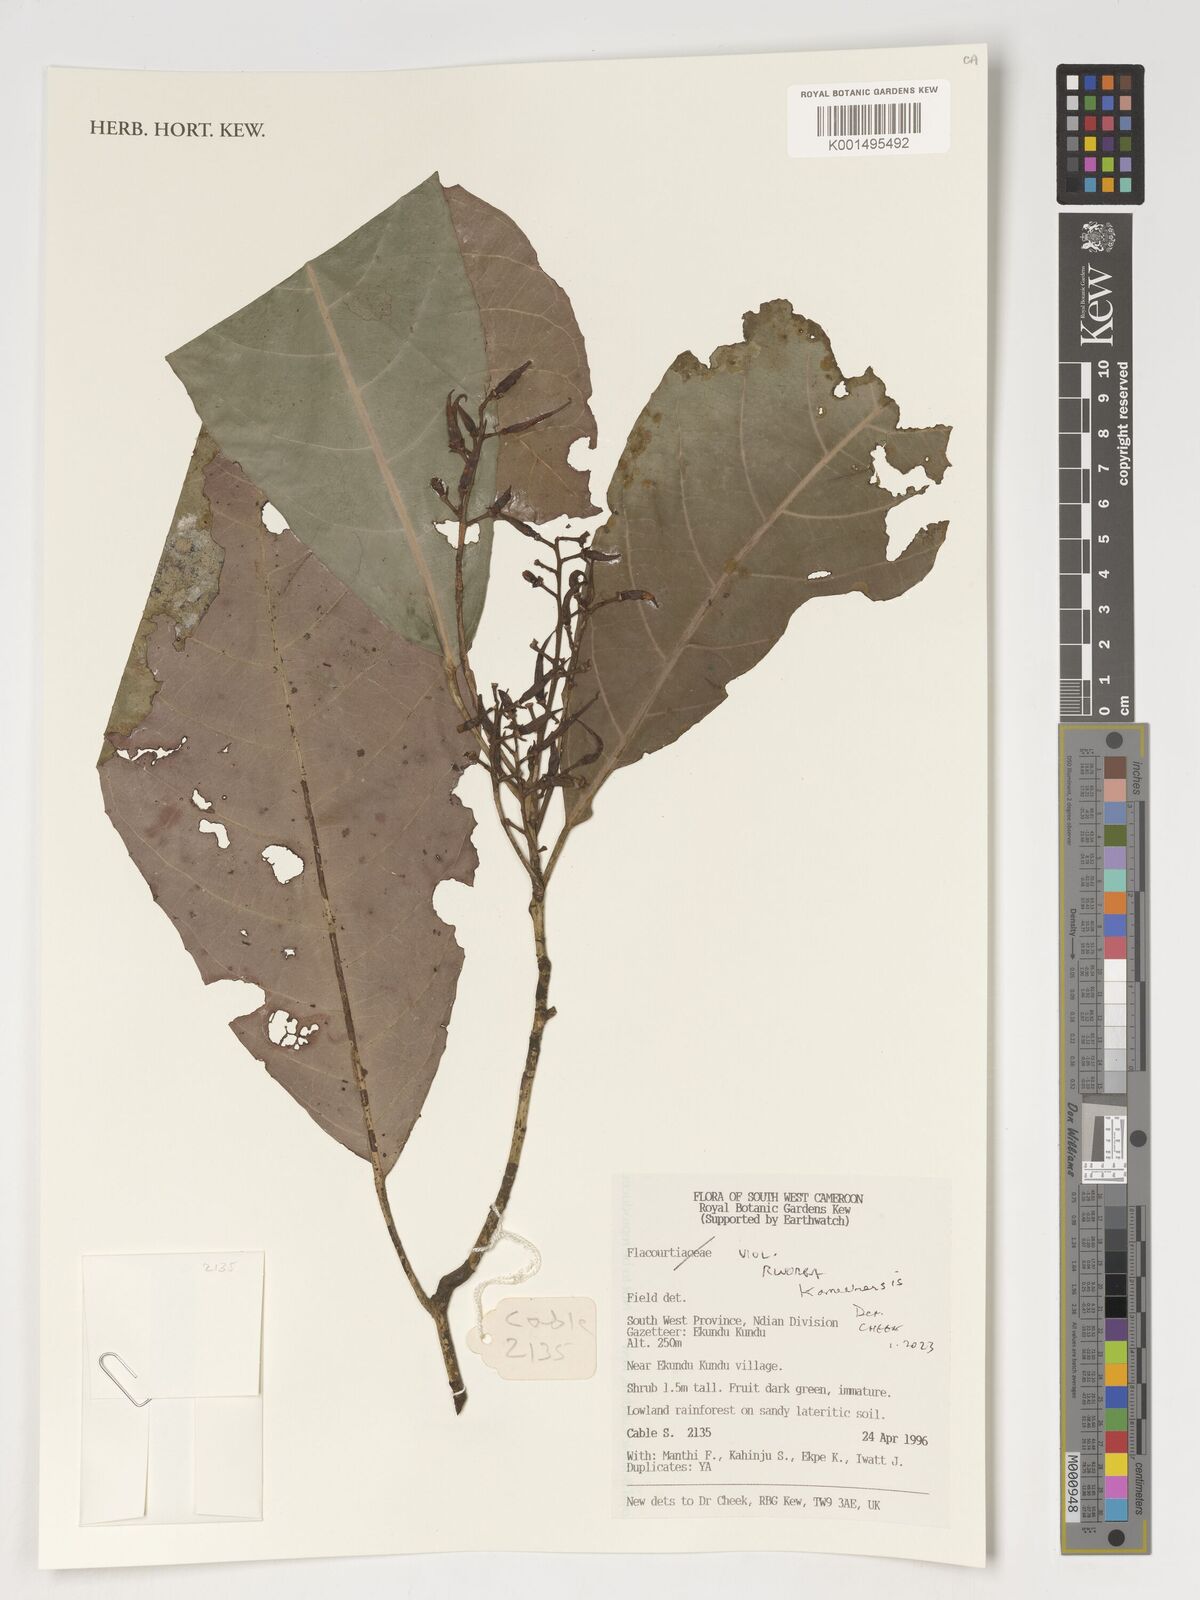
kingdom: Plantae
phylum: Tracheophyta
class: Magnoliopsida
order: Malpighiales
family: Violaceae
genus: Rinorea
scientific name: Rinorea kamerunensis
